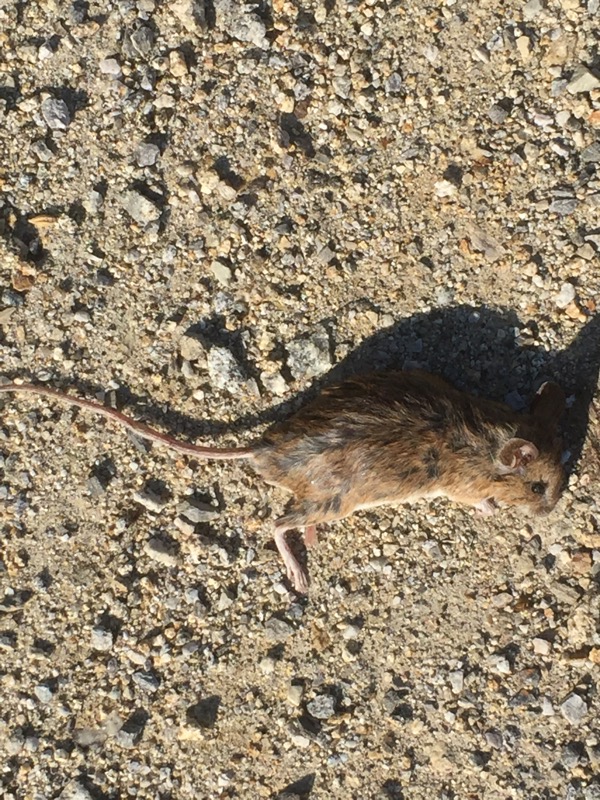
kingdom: Animalia
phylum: Chordata
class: Mammalia
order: Rodentia
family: Muridae
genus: Apodemus
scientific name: Apodemus
